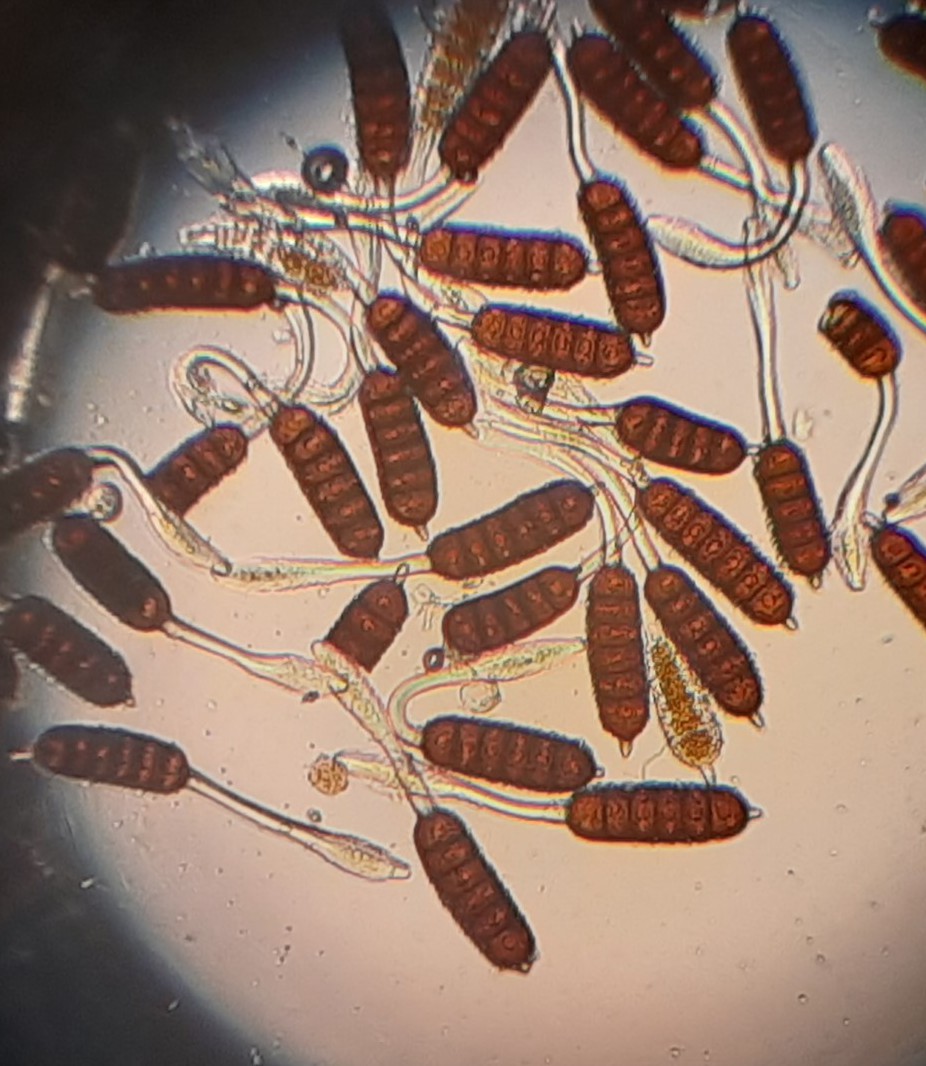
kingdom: Fungi
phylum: Basidiomycota
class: Pucciniomycetes
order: Pucciniales
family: Phragmidiaceae
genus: Phragmidium
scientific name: Phragmidium bulbosum
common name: brombær-flercellerust
